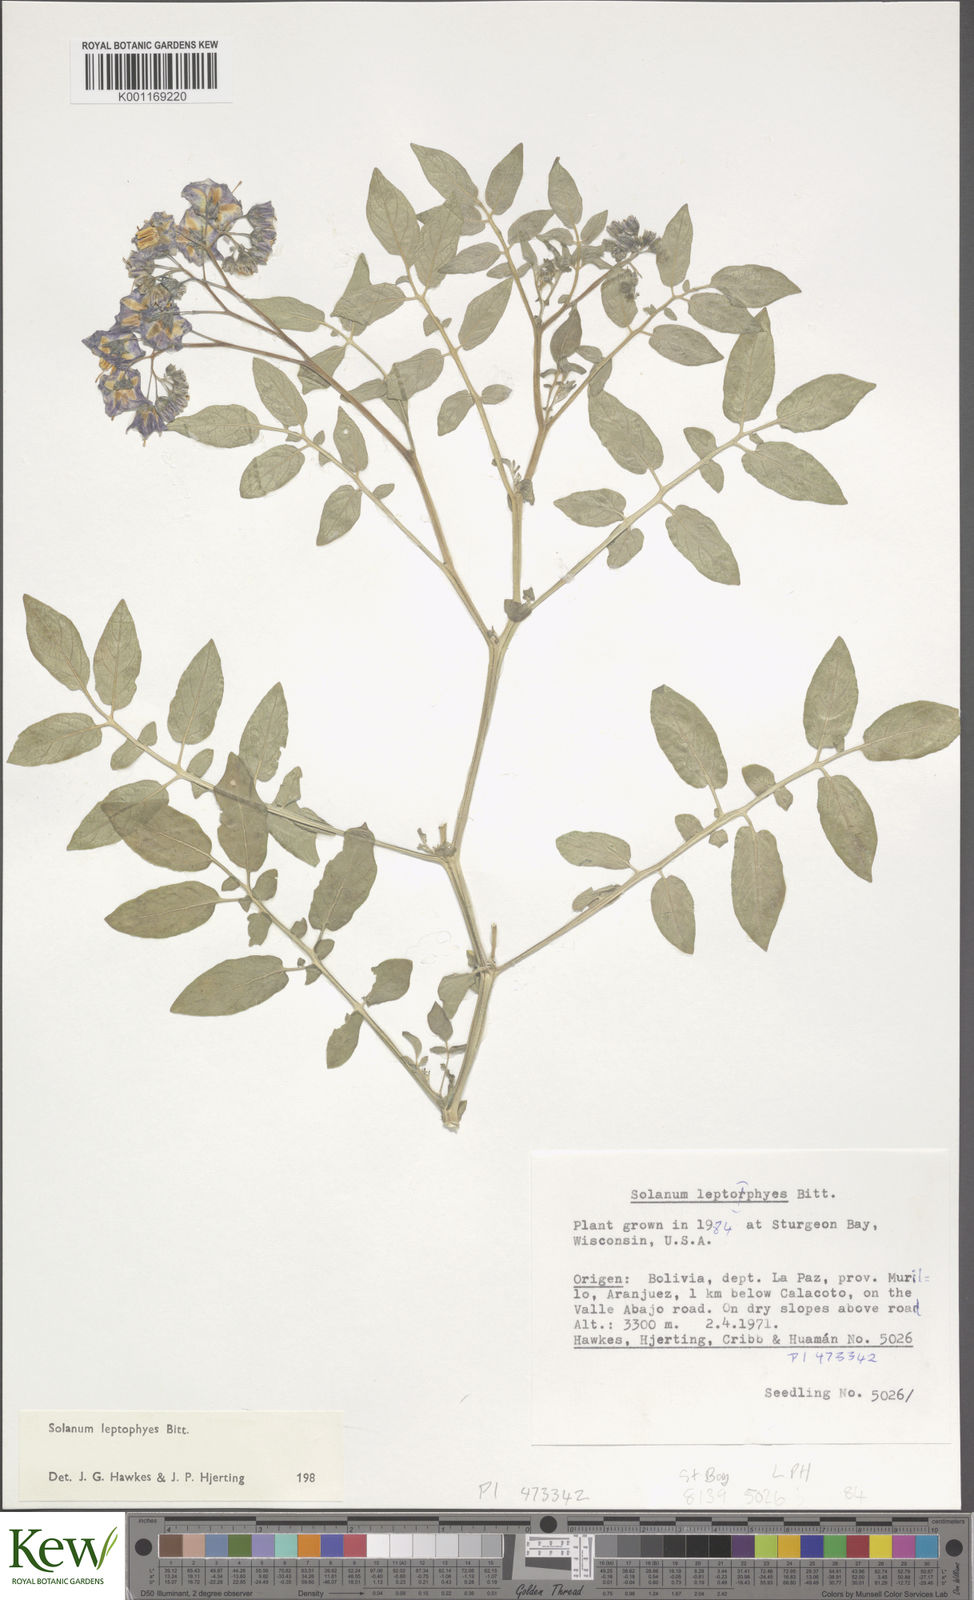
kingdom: Plantae
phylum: Tracheophyta
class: Magnoliopsida
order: Solanales
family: Solanaceae
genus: Solanum
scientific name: Solanum brevicaule
